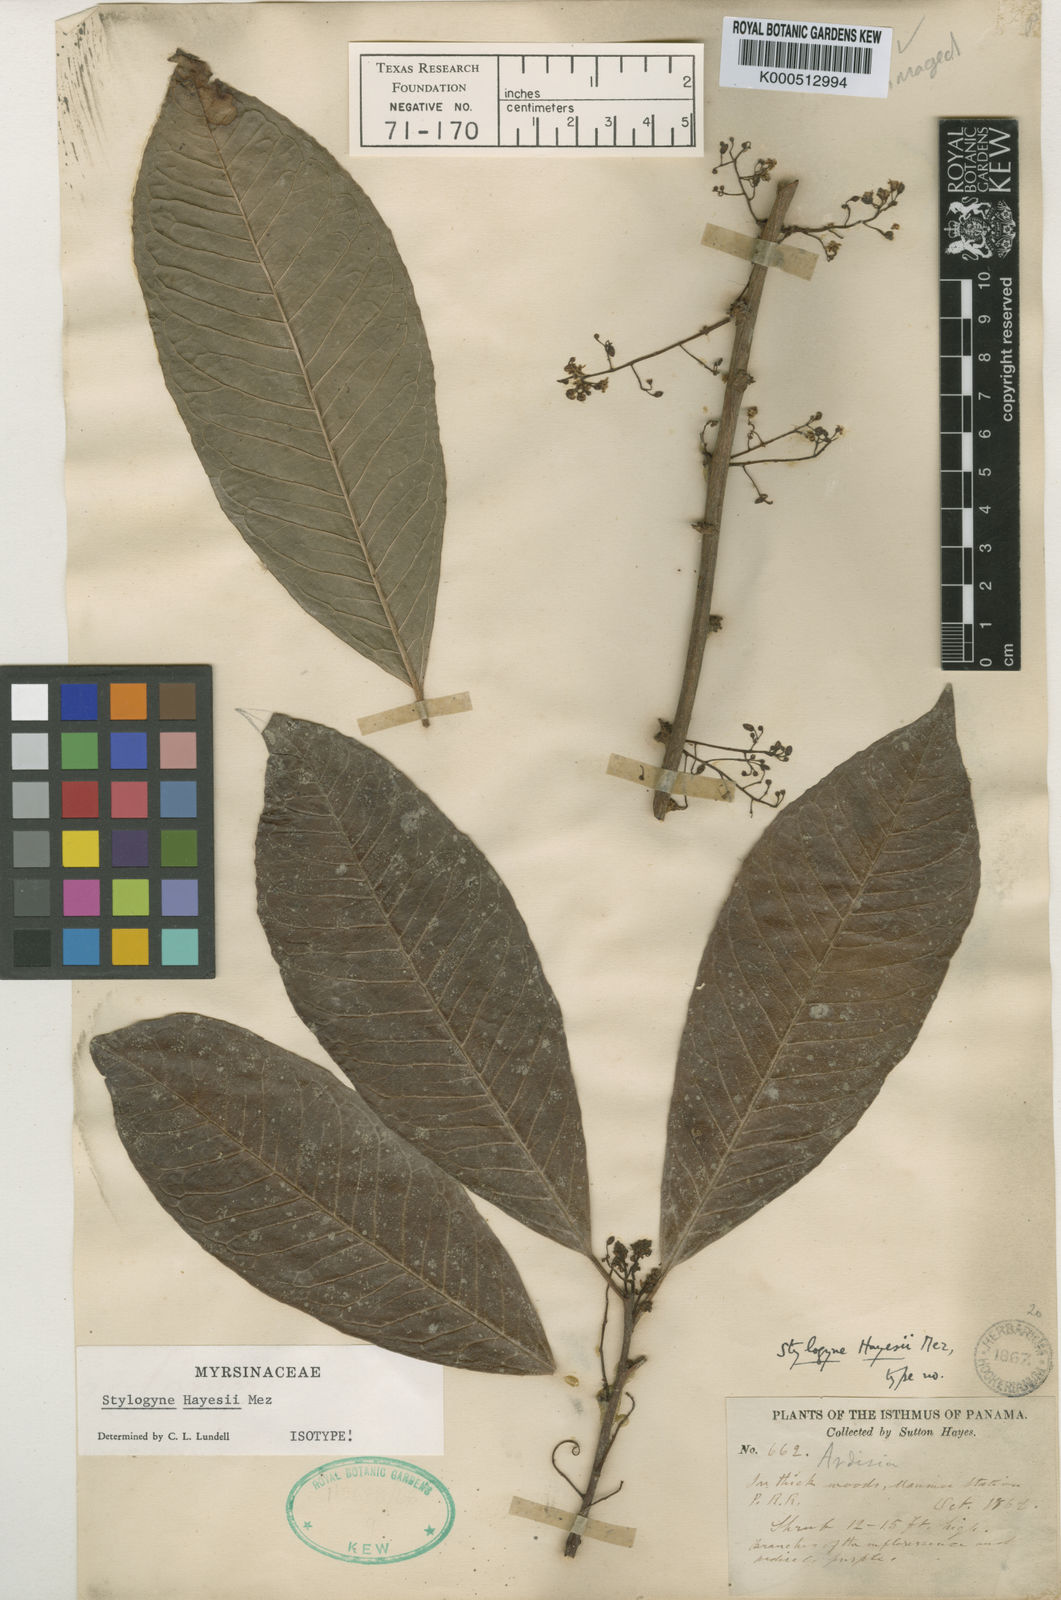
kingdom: Plantae
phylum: Tracheophyta
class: Magnoliopsida
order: Ericales
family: Primulaceae
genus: Stylogyne
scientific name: Stylogyne hayesii
